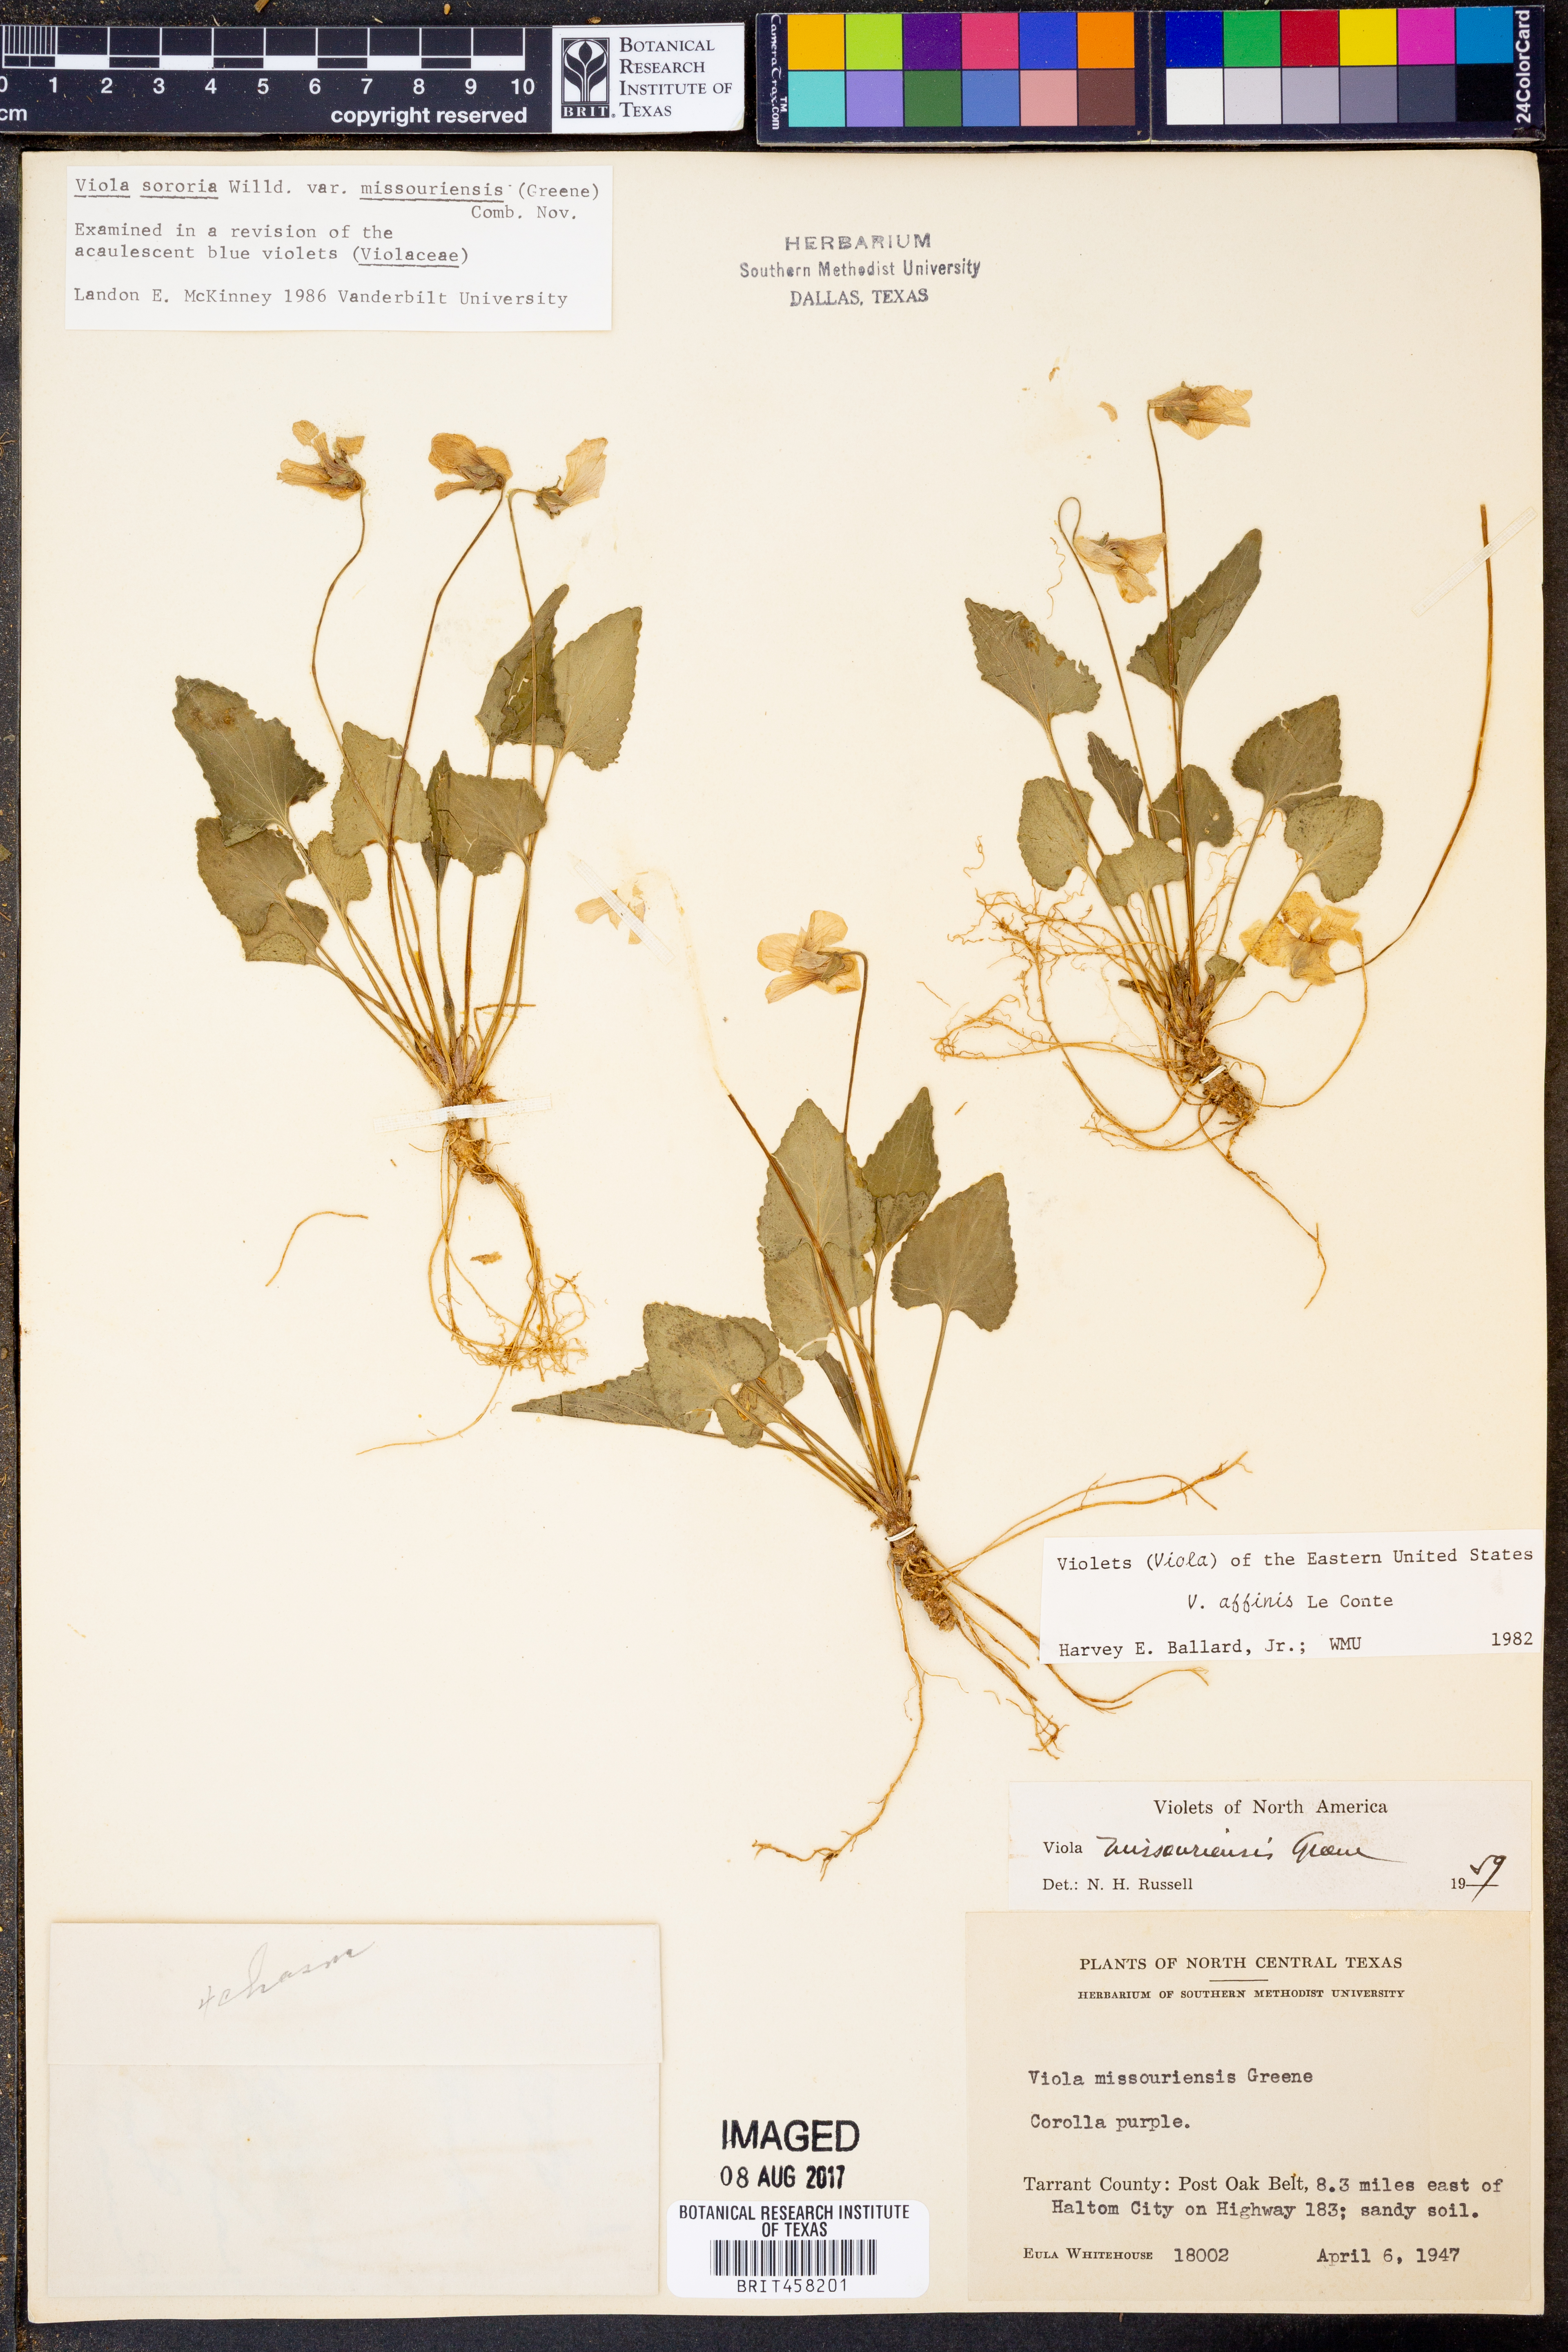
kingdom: Plantae
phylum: Tracheophyta
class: Magnoliopsida
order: Malpighiales
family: Violaceae
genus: Viola
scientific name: Viola missouriensis
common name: Missouri violet
